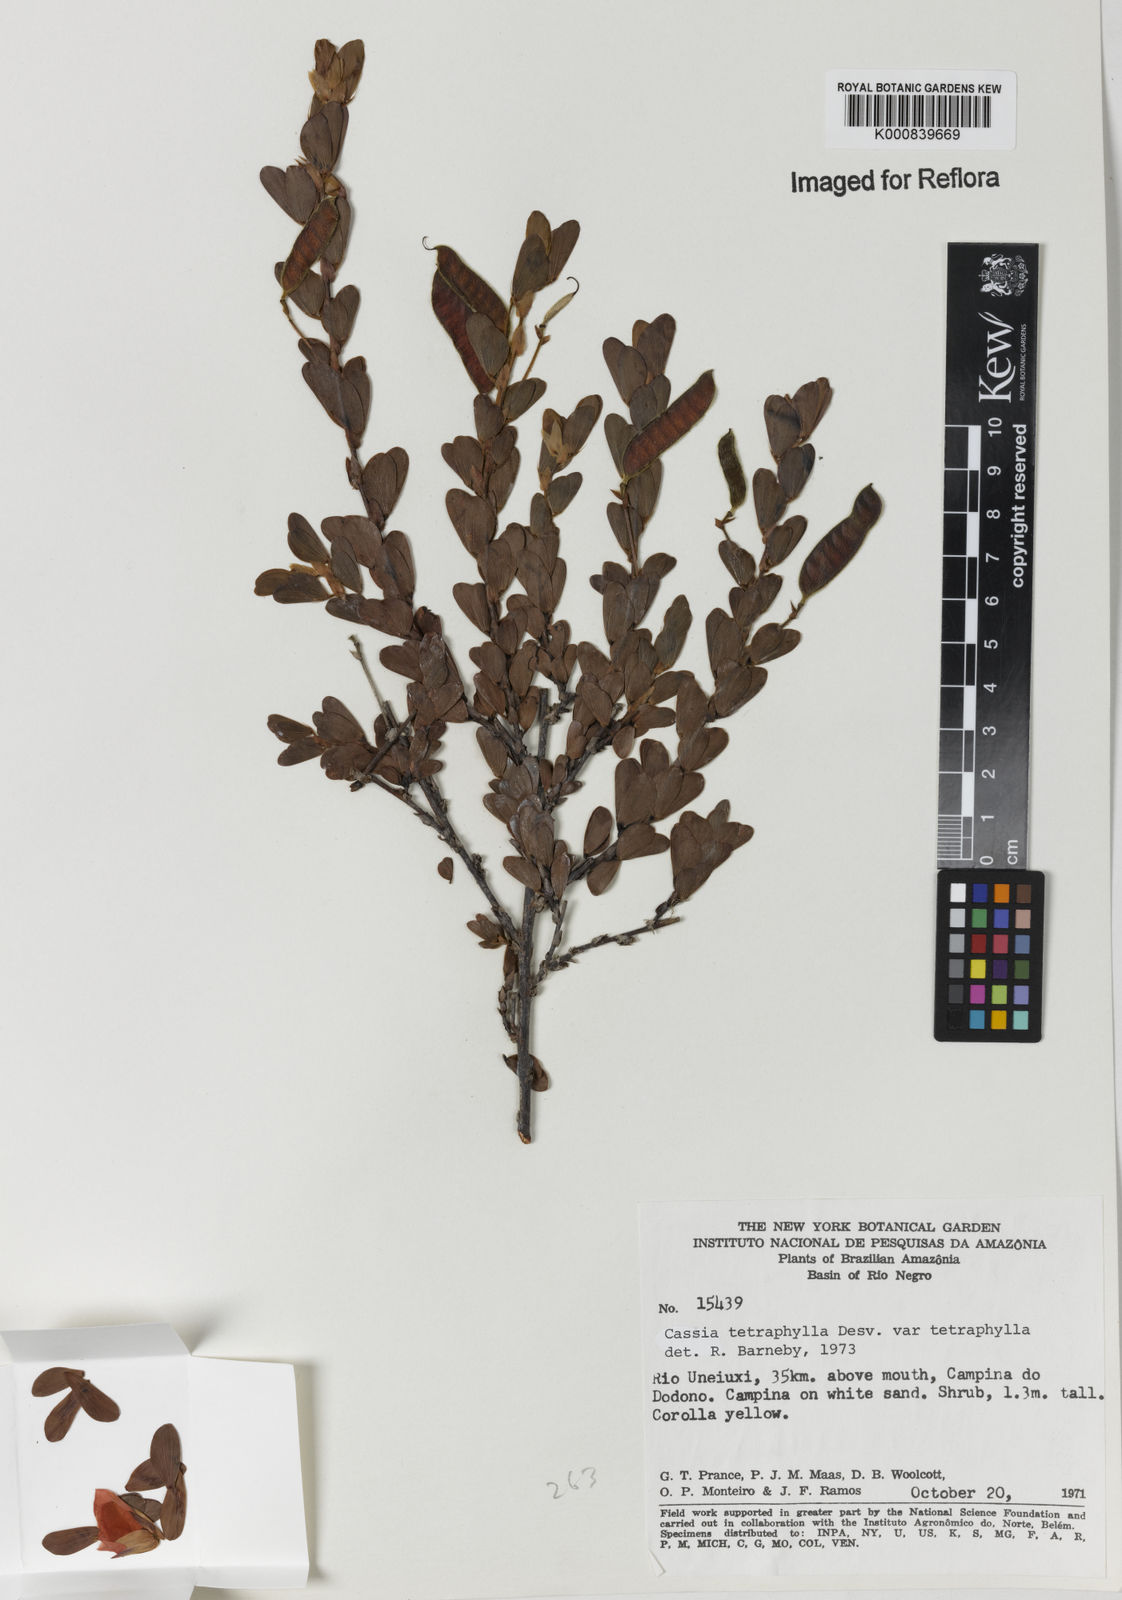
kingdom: Plantae
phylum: Tracheophyta
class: Magnoliopsida
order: Fabales
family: Fabaceae
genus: Chamaecrista
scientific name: Chamaecrista desvauxii
